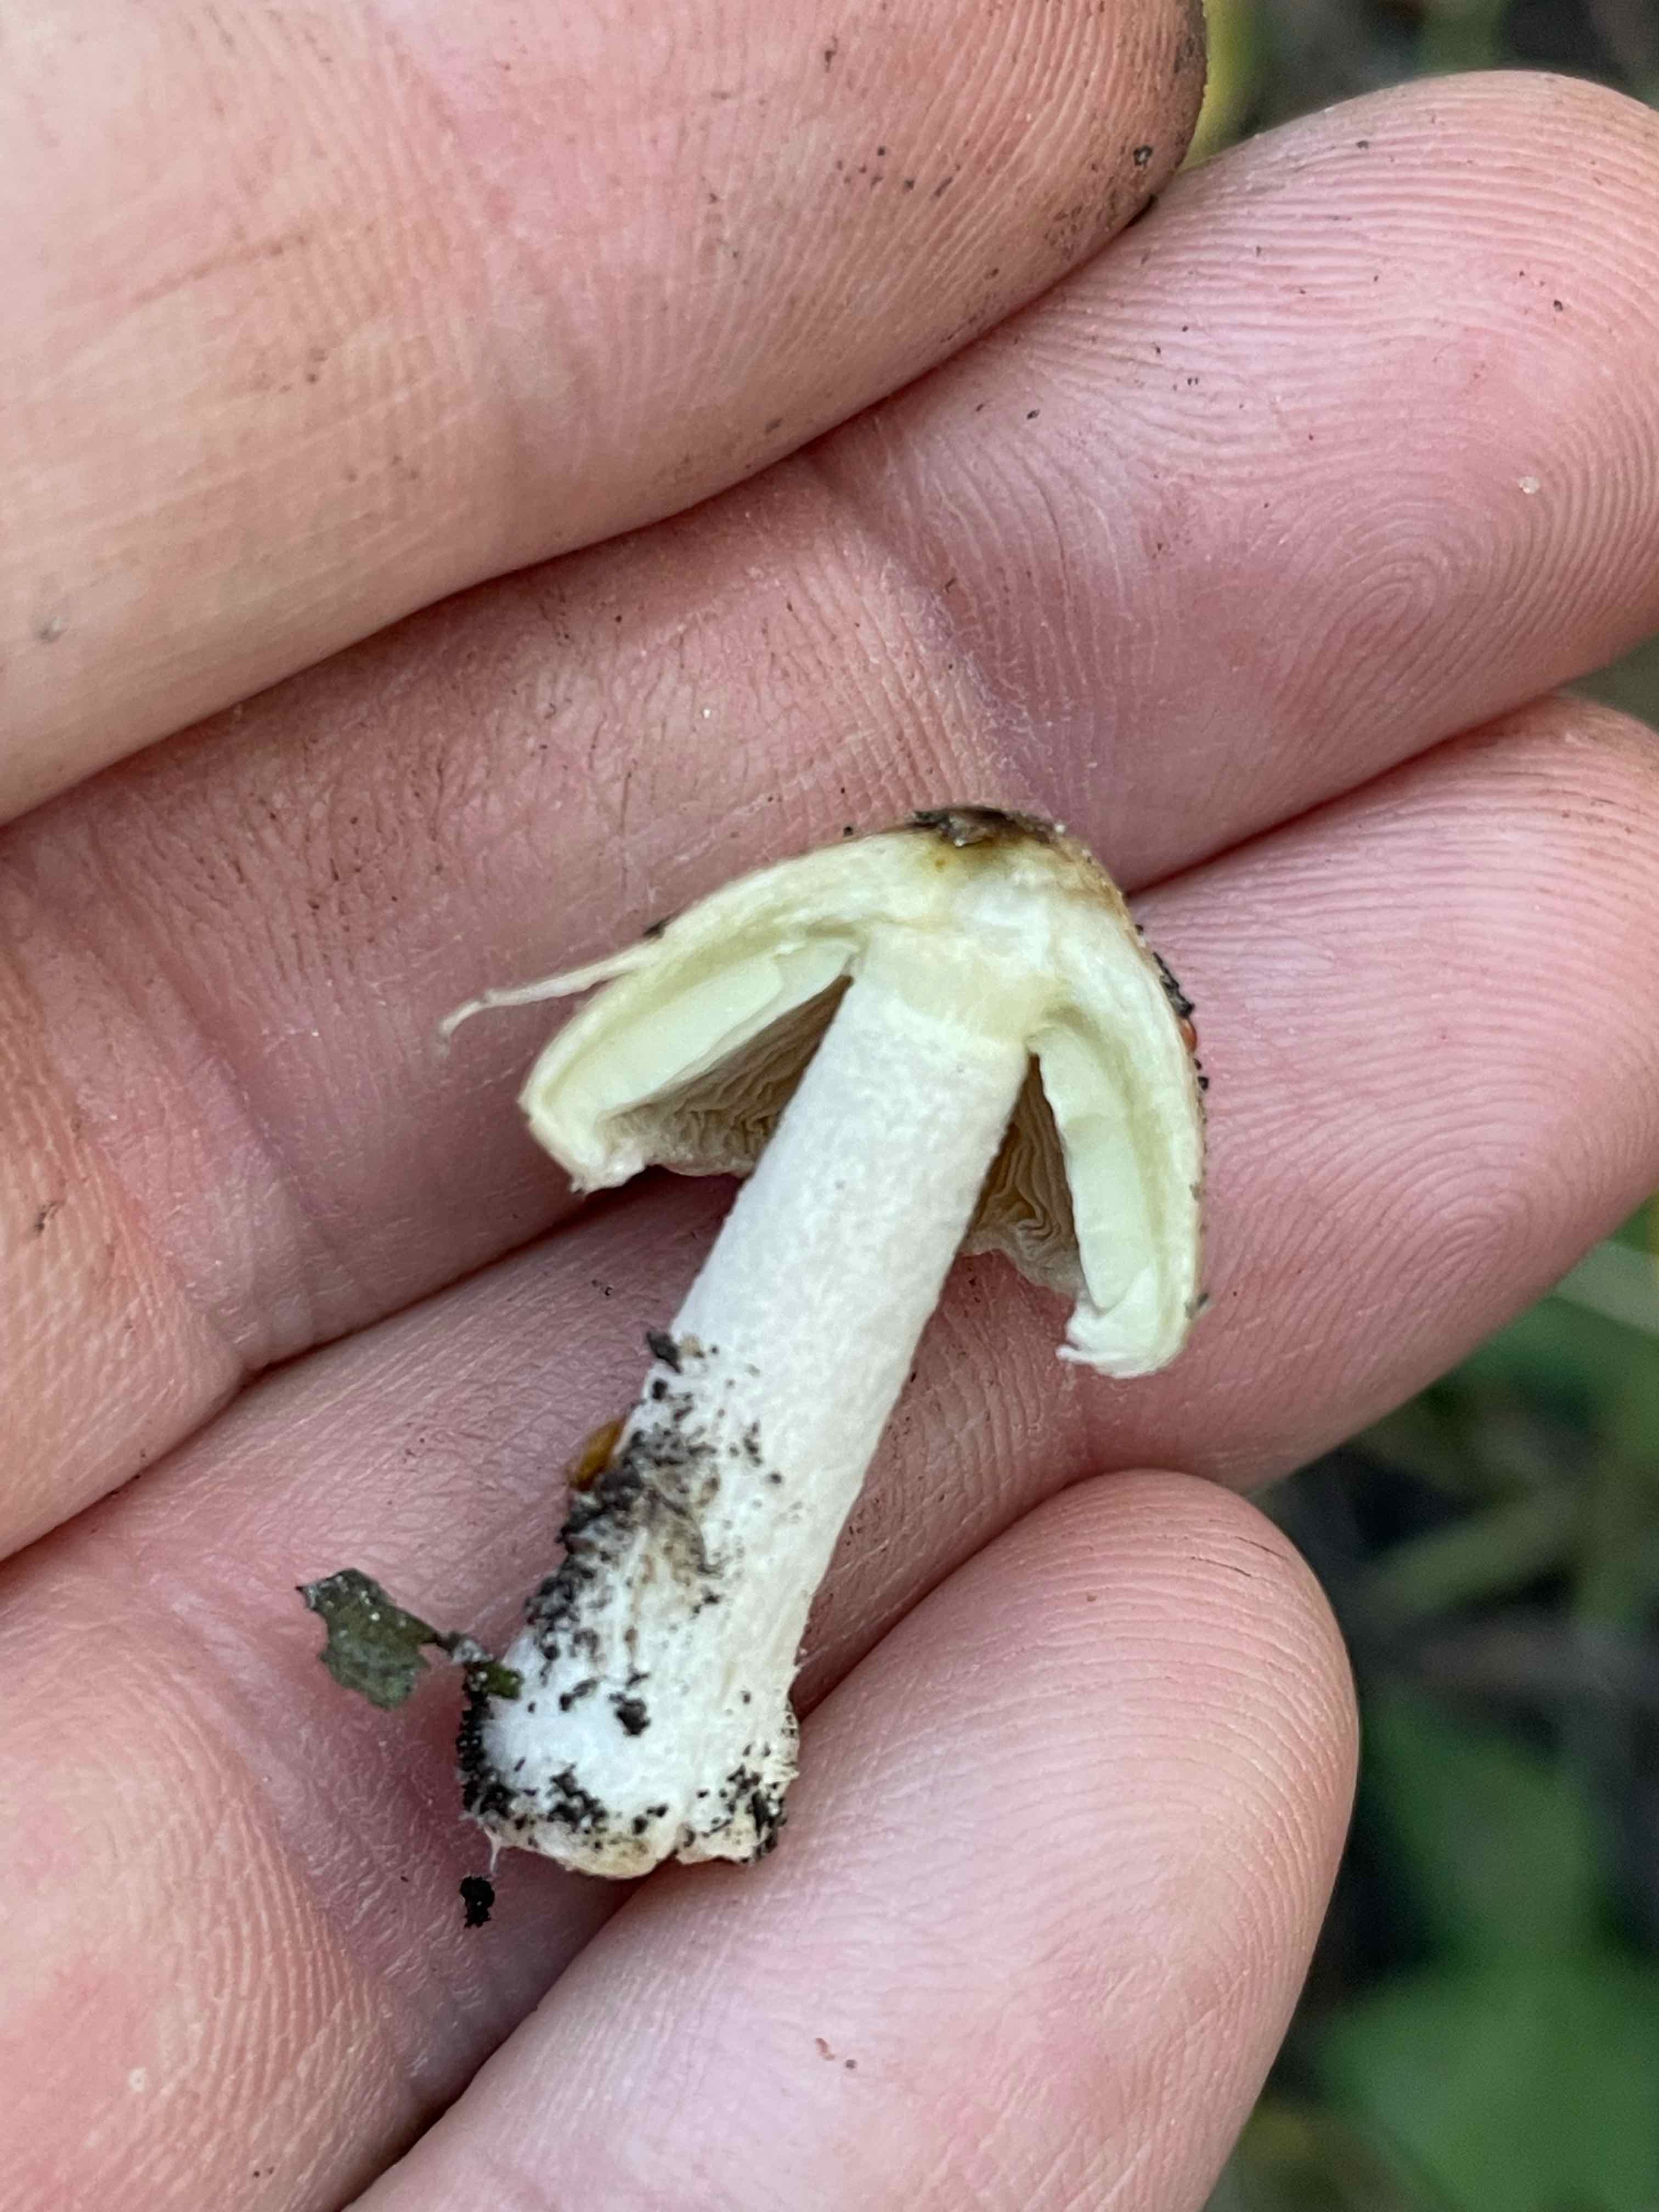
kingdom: Fungi
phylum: Basidiomycota
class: Agaricomycetes
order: Agaricales
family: Inocybaceae
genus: Pseudosperma
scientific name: Pseudosperma
